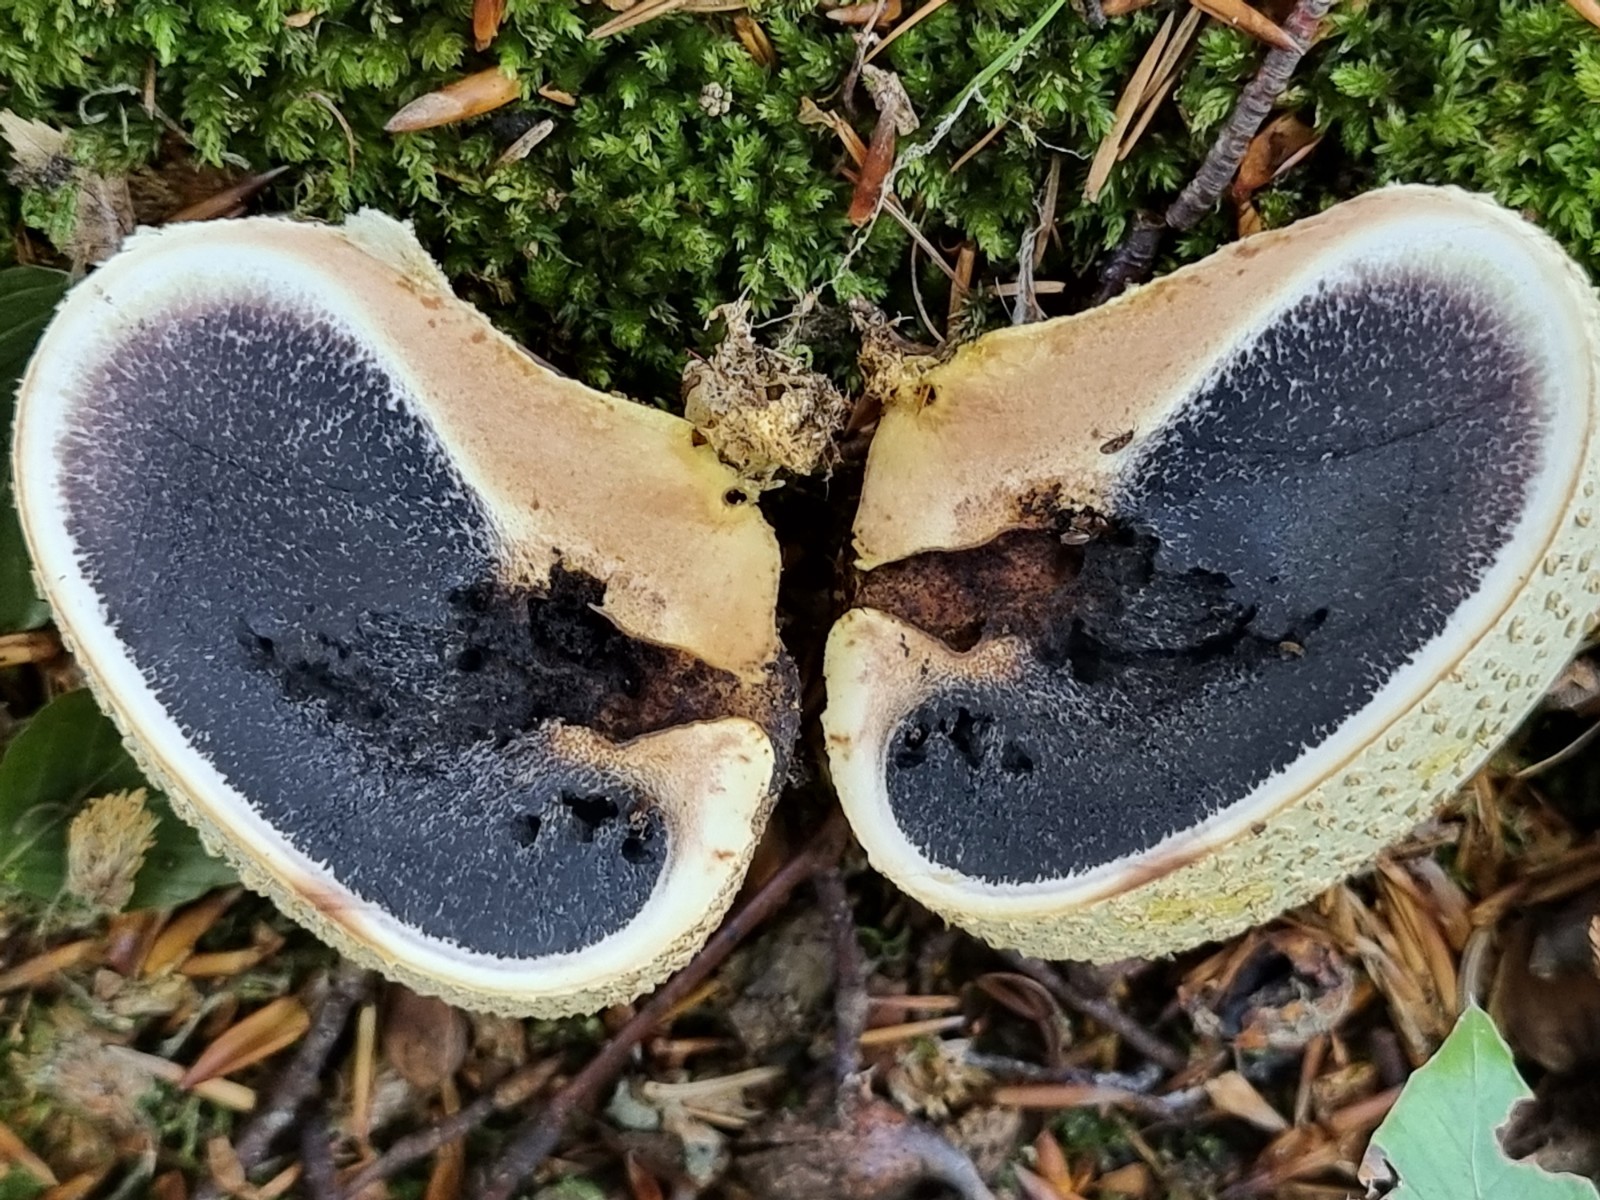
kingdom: Fungi
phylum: Basidiomycota
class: Agaricomycetes
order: Boletales
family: Sclerodermataceae
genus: Scleroderma
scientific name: Scleroderma citrinum
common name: almindelig bruskbold
